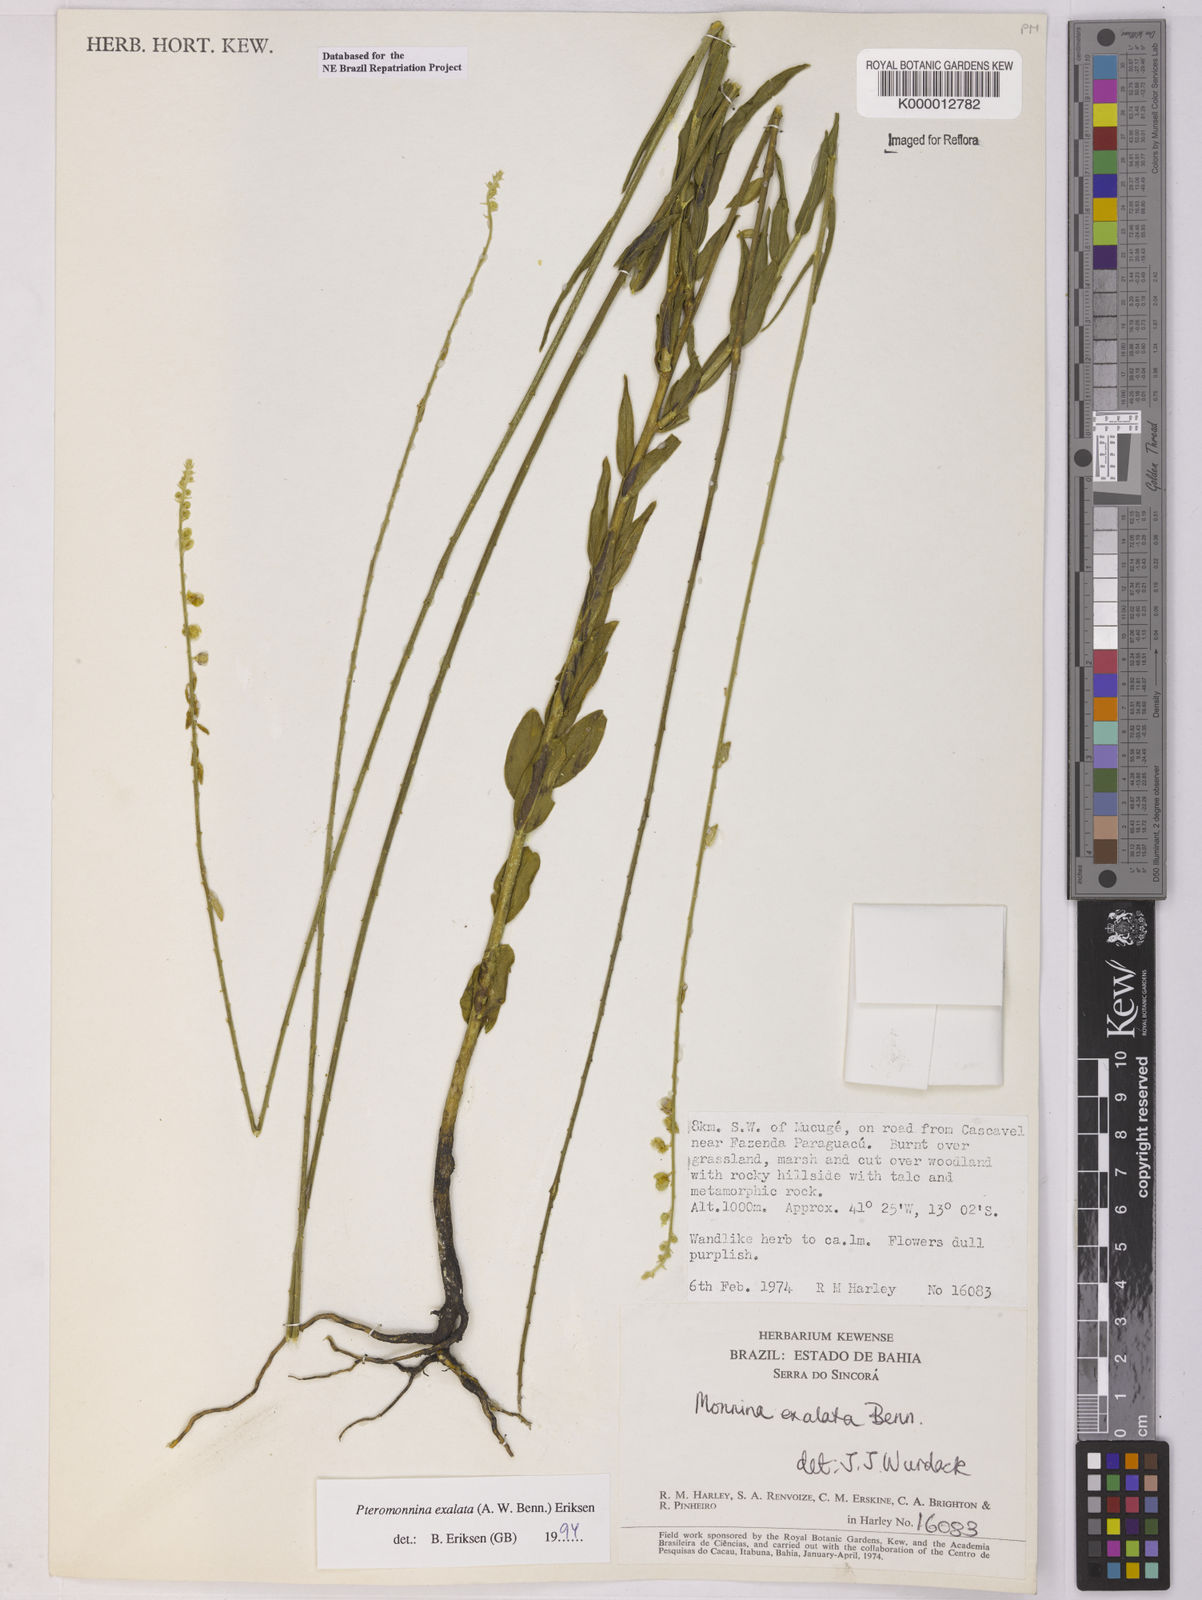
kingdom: Plantae
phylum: Tracheophyta
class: Magnoliopsida
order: Fabales
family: Polygalaceae
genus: Monnina
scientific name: Monnina exalata
